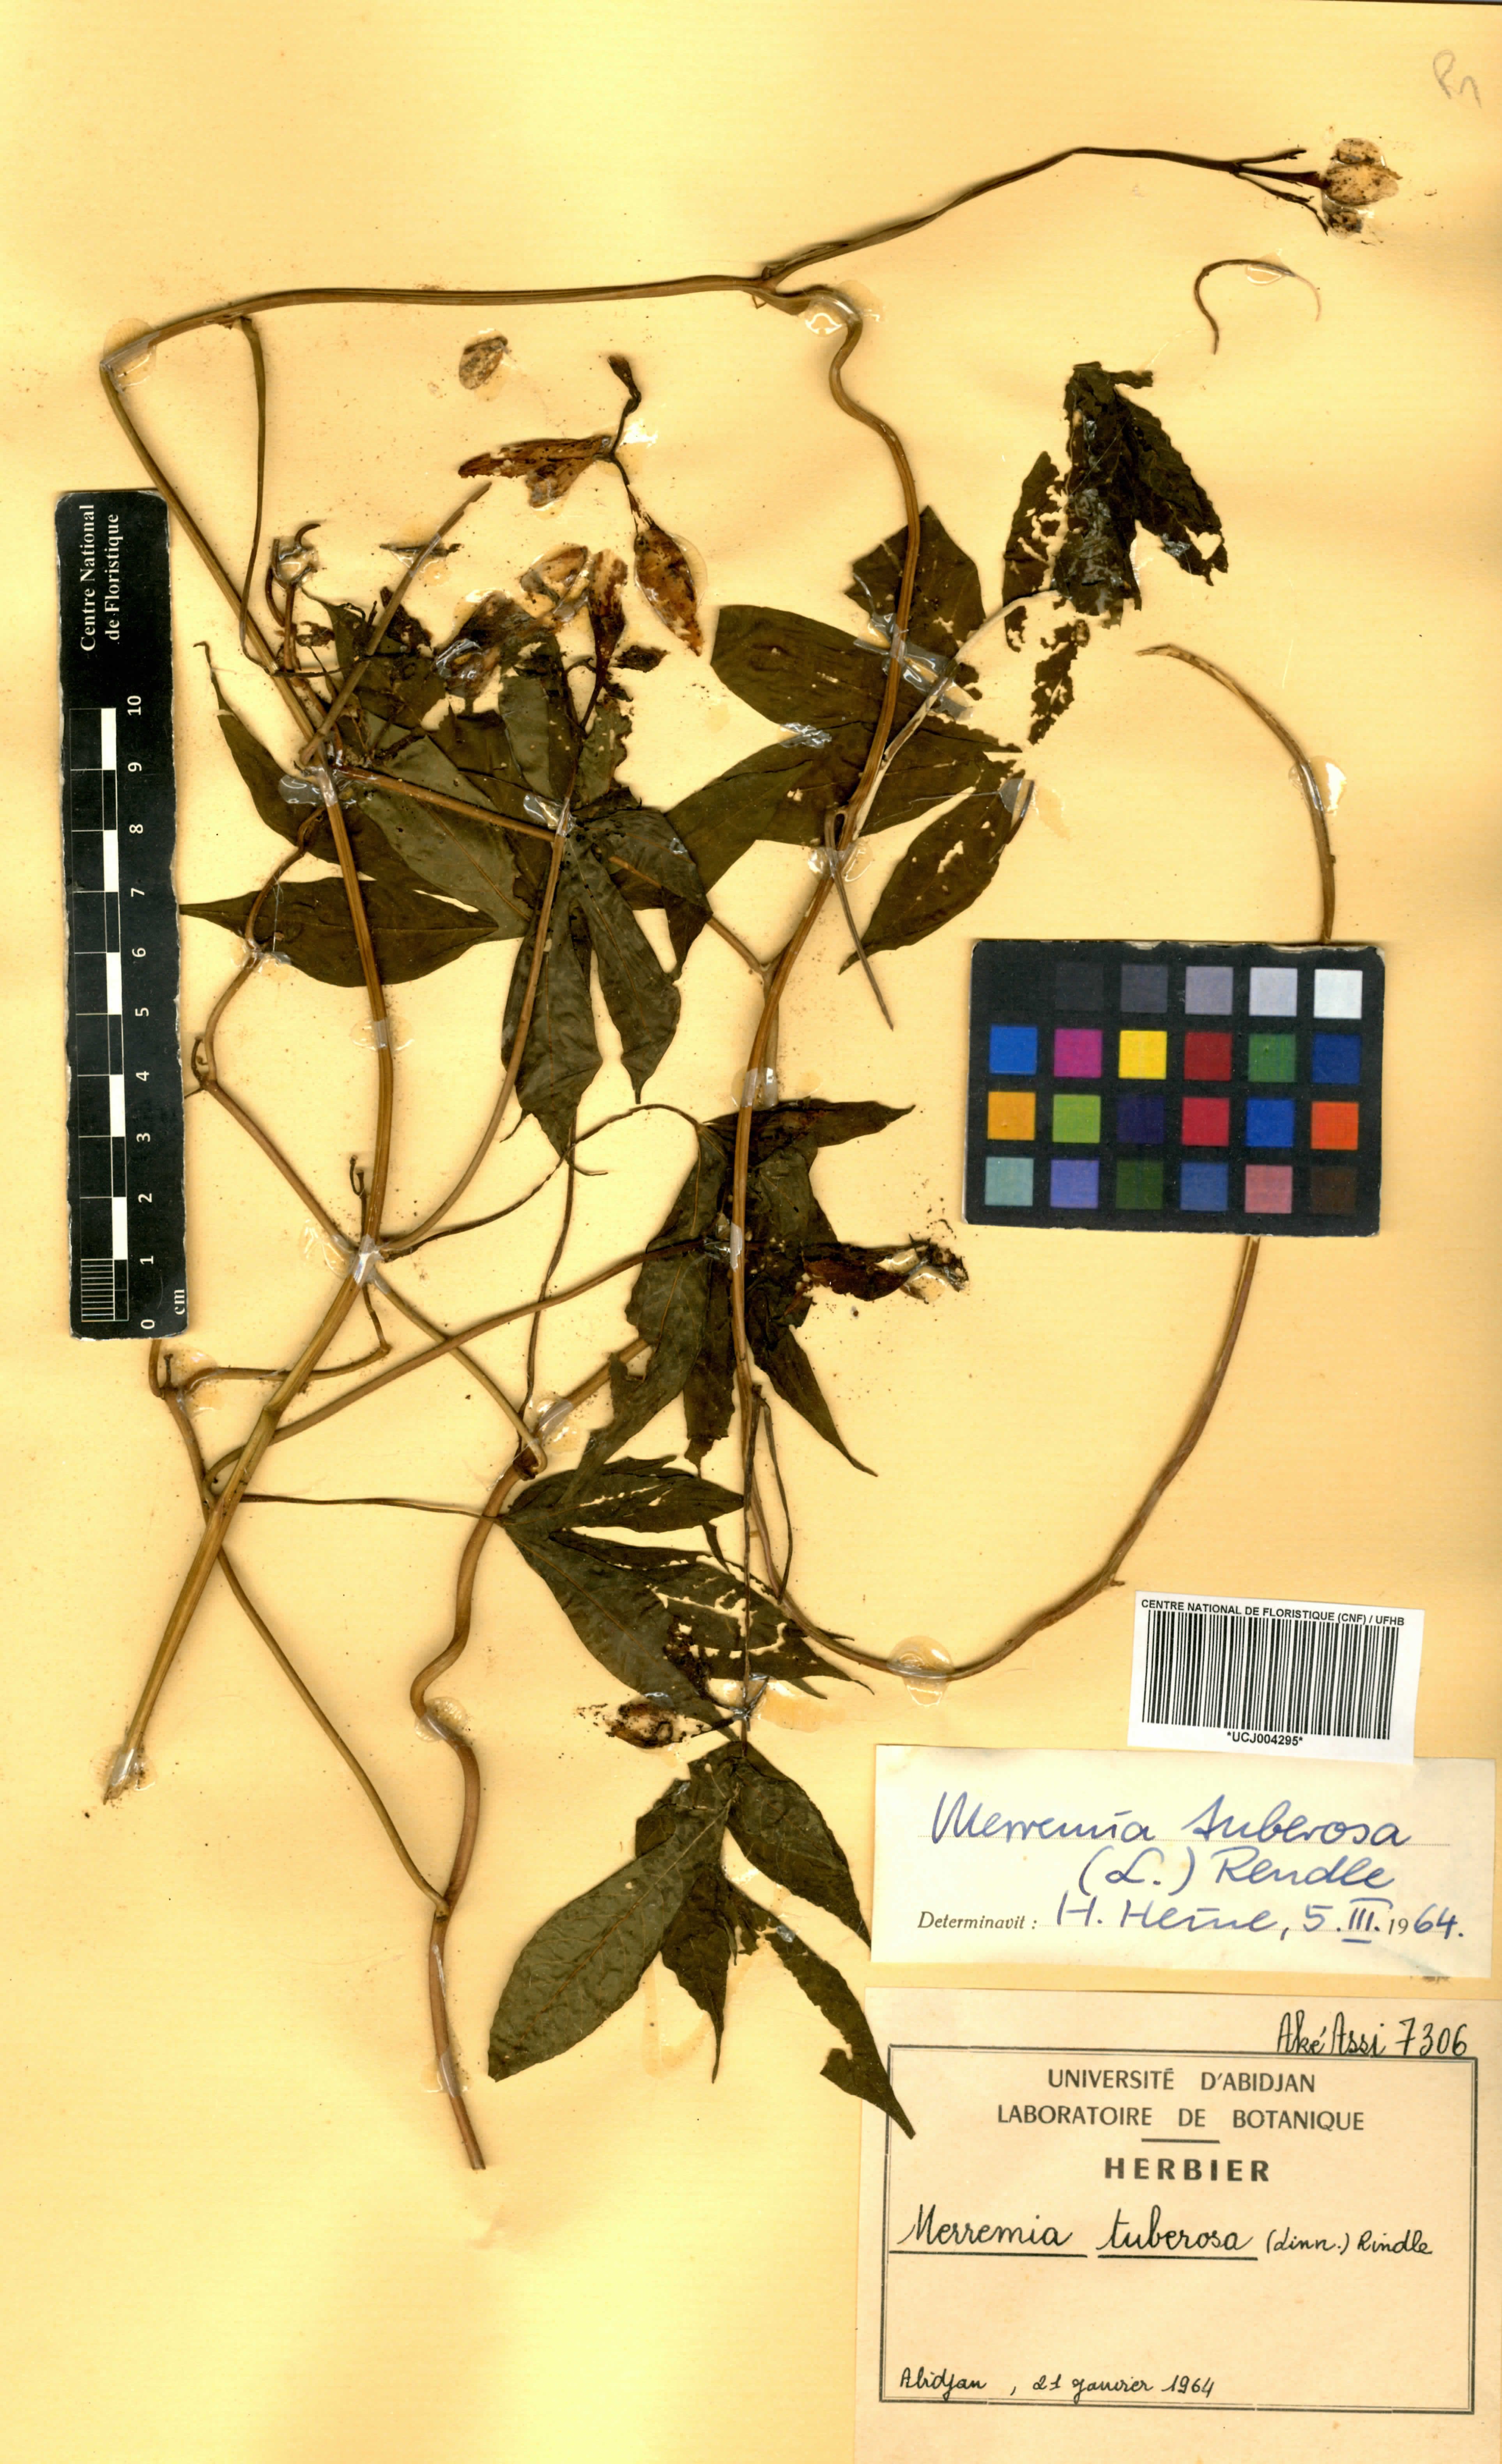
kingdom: Plantae
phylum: Tracheophyta
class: Magnoliopsida
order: Solanales
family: Convolvulaceae
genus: Distimake
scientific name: Distimake tuberosus
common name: Spanish arborvine
